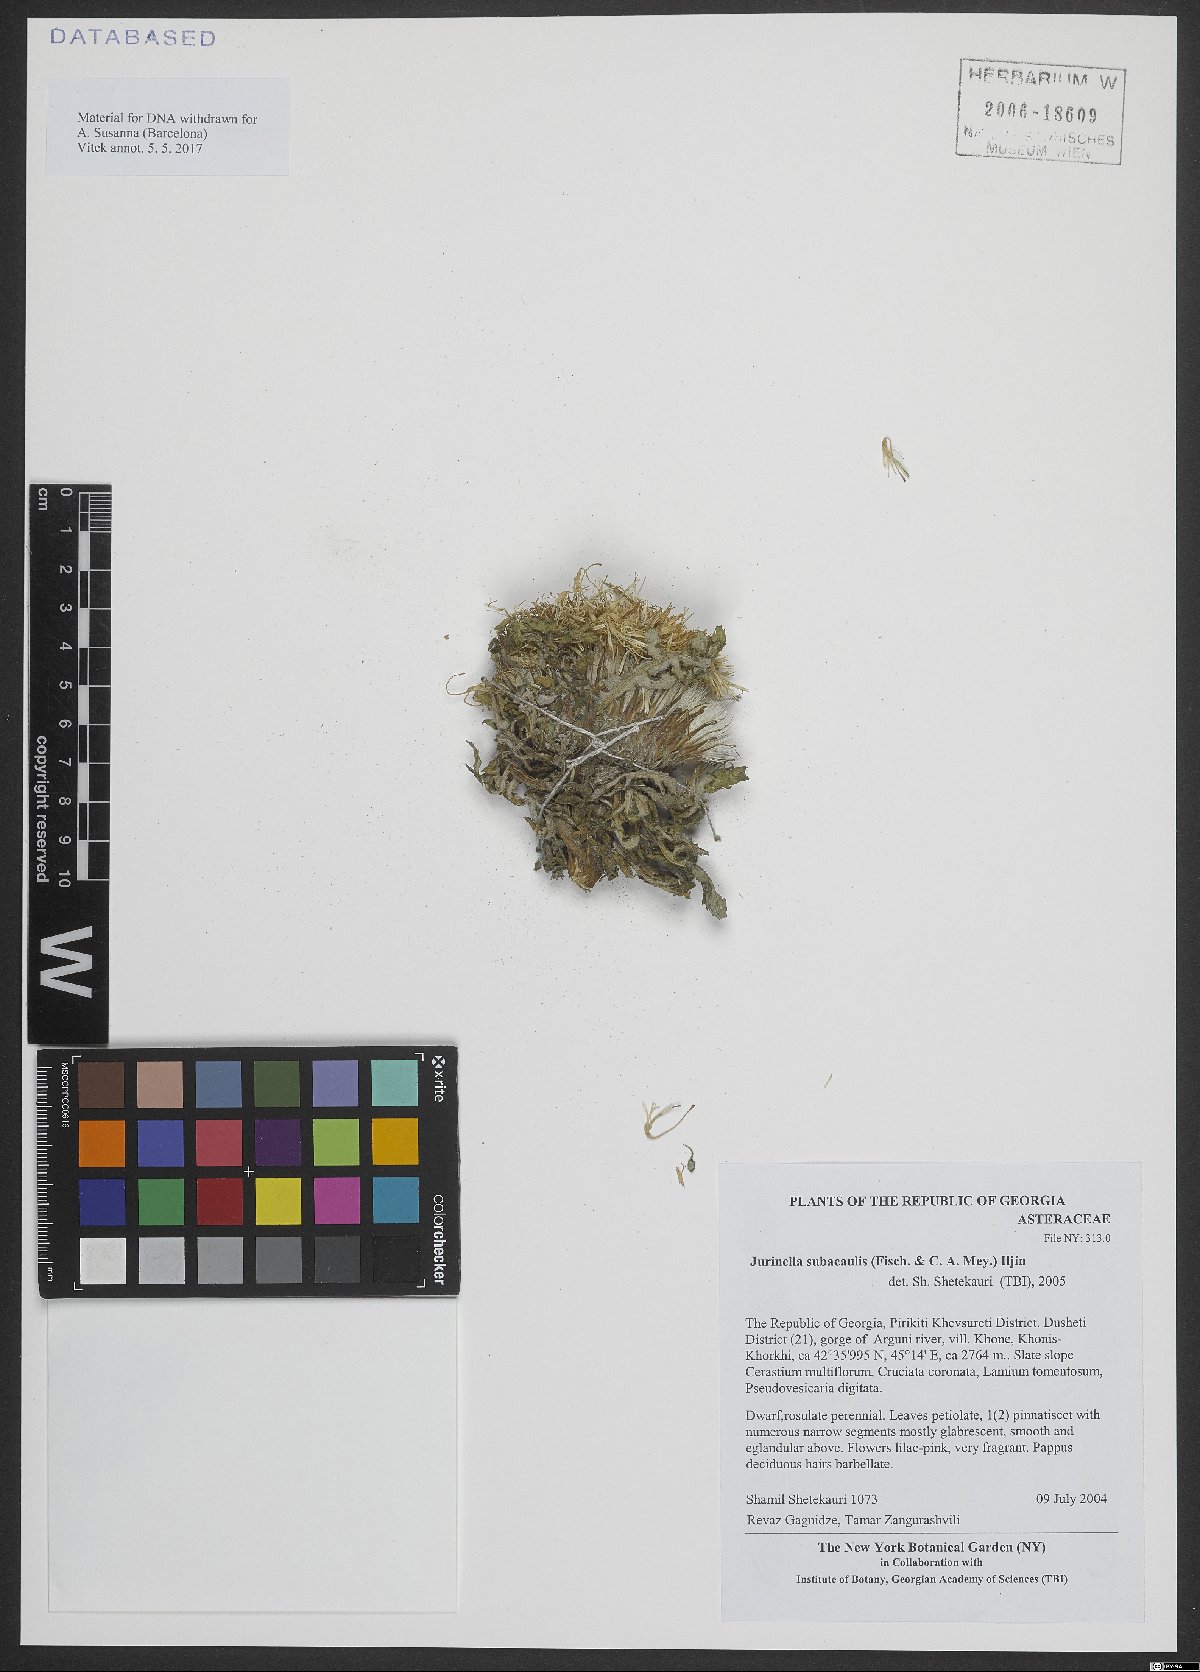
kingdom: Plantae
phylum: Tracheophyta
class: Magnoliopsida
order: Asterales
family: Asteraceae
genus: Jurinea
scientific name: Jurinea moschus
